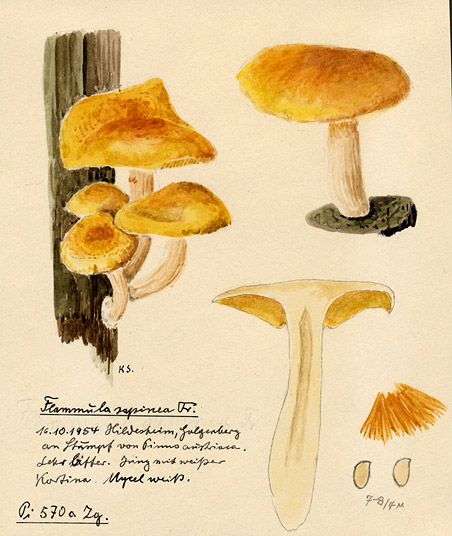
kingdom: Fungi
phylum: Basidiomycota
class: Agaricomycetes
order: Agaricales
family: Hymenogastraceae
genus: Gymnopilus
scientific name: Gymnopilus sapineus
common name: Scaly rustgill
